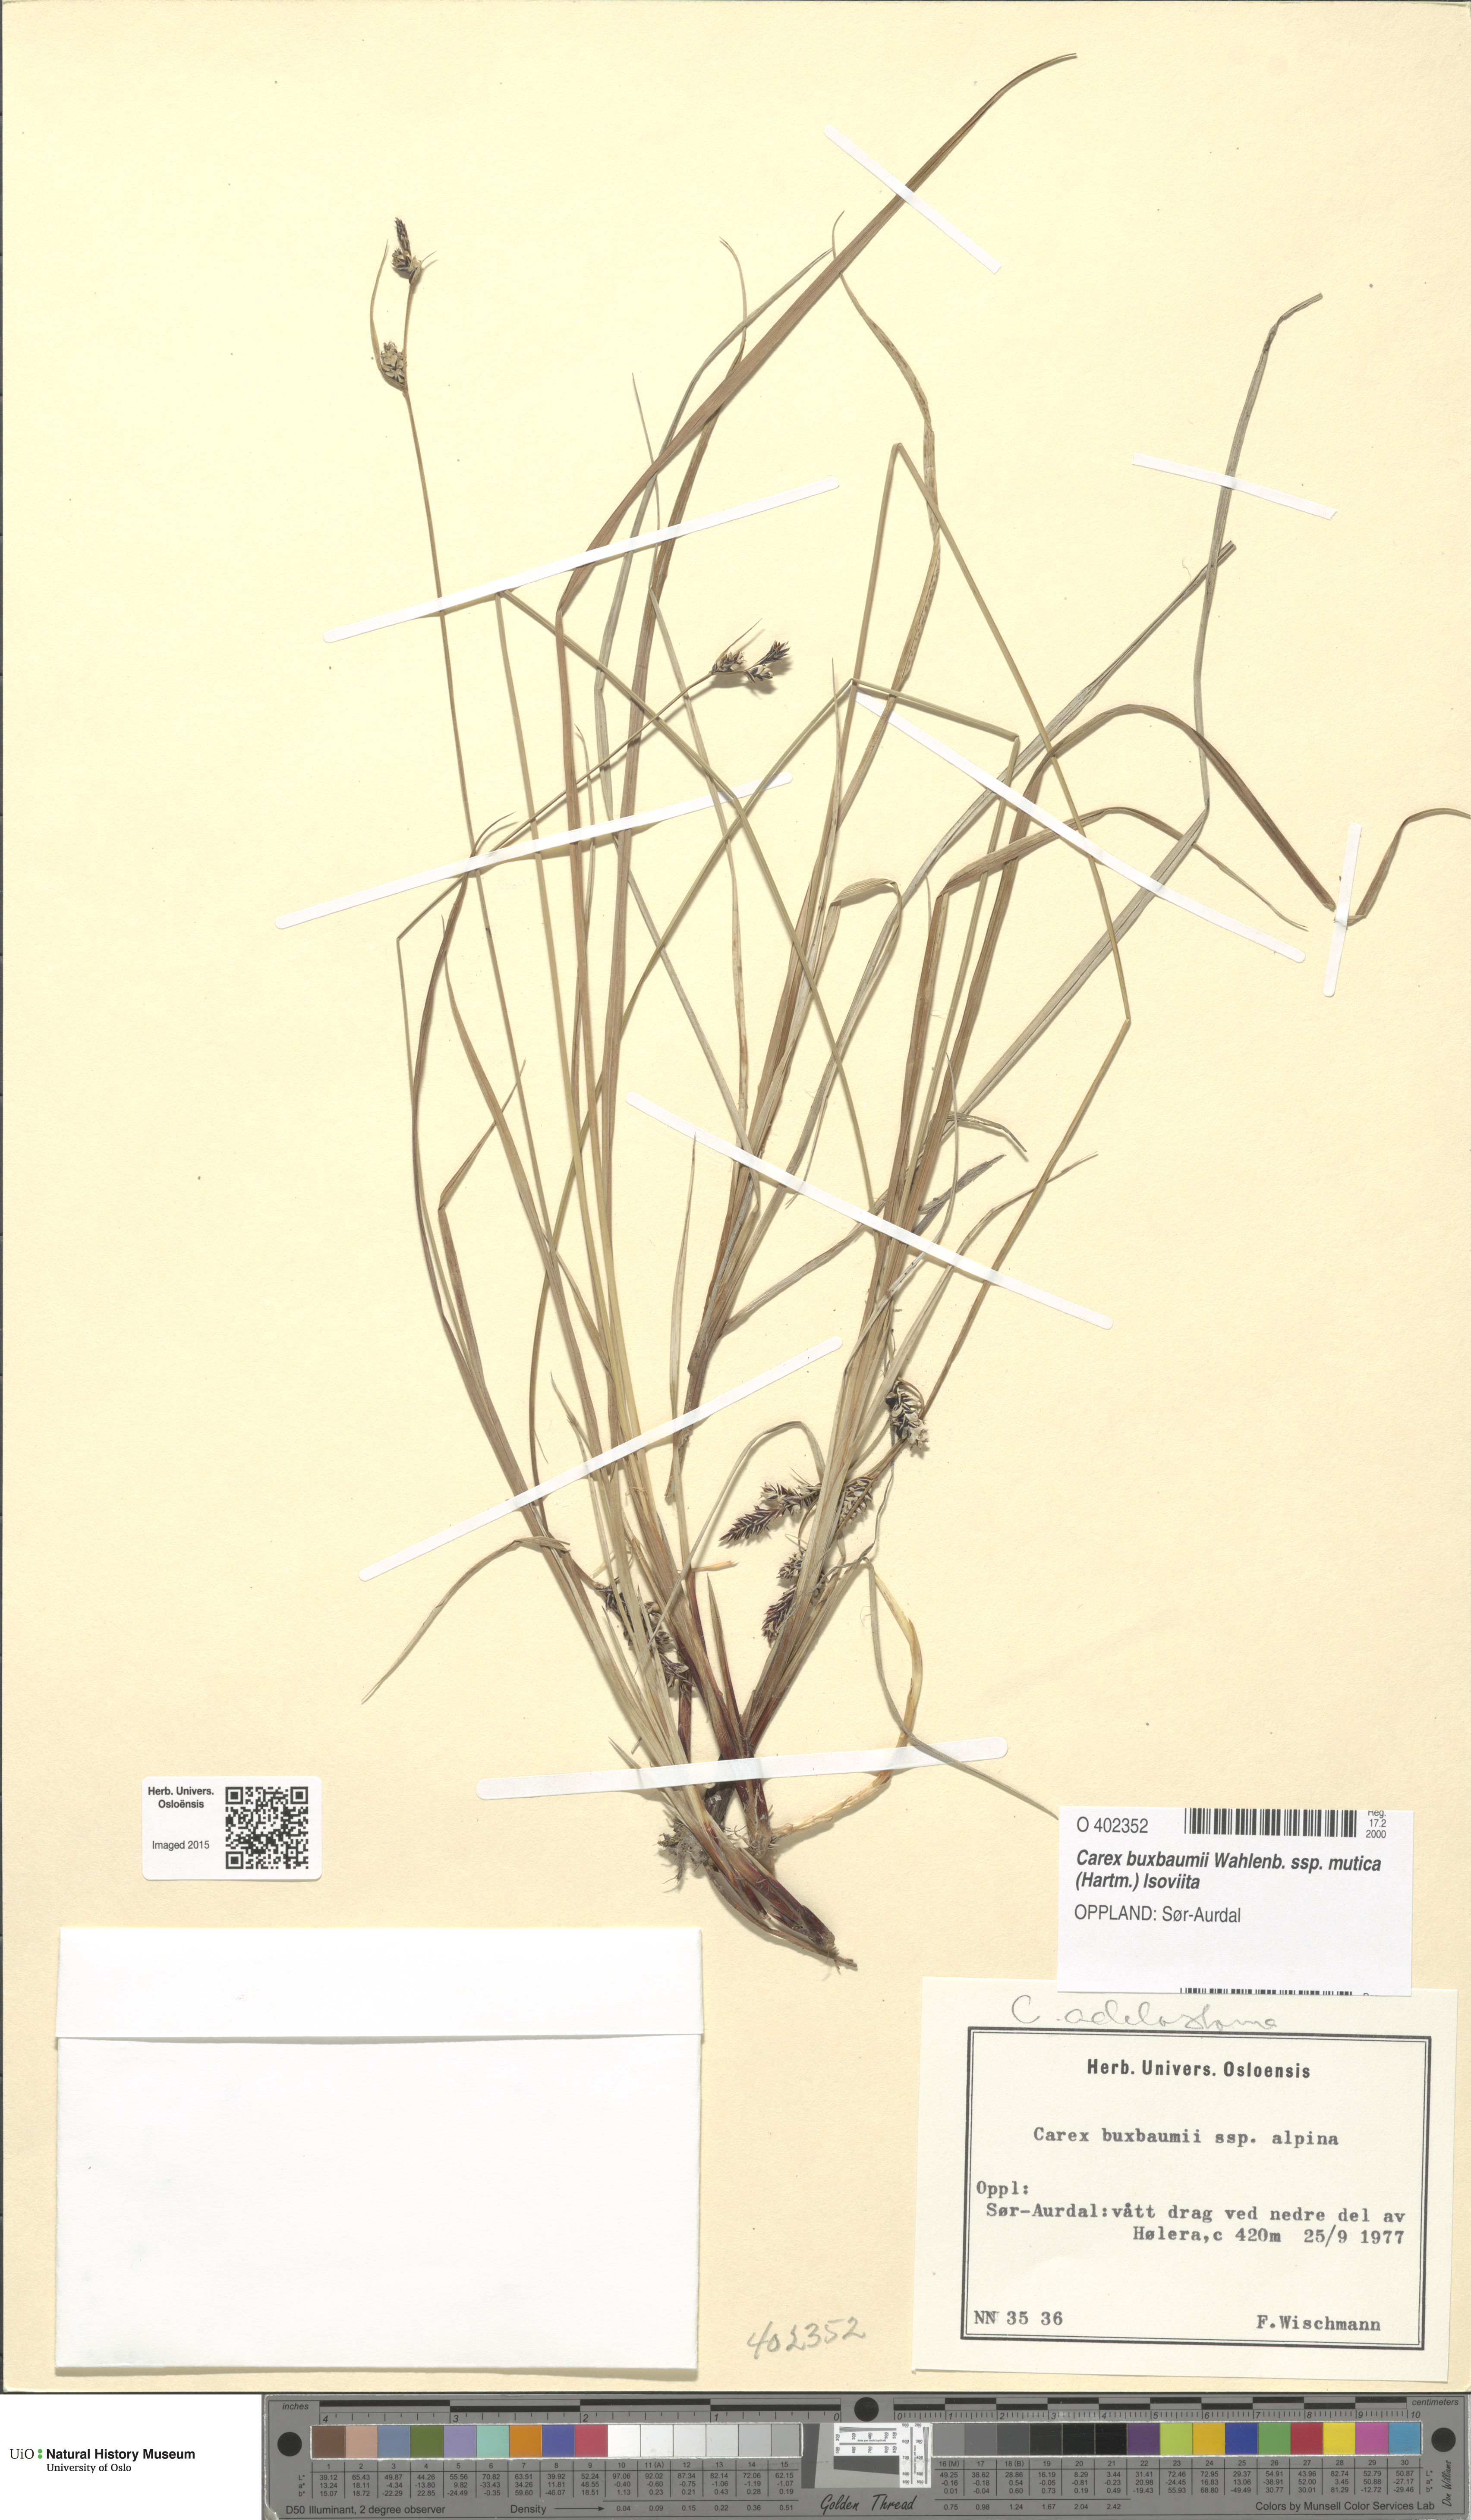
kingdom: Plantae
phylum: Tracheophyta
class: Liliopsida
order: Poales
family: Cyperaceae
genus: Carex
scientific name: Carex adelostoma
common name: Circumpolar sedge
